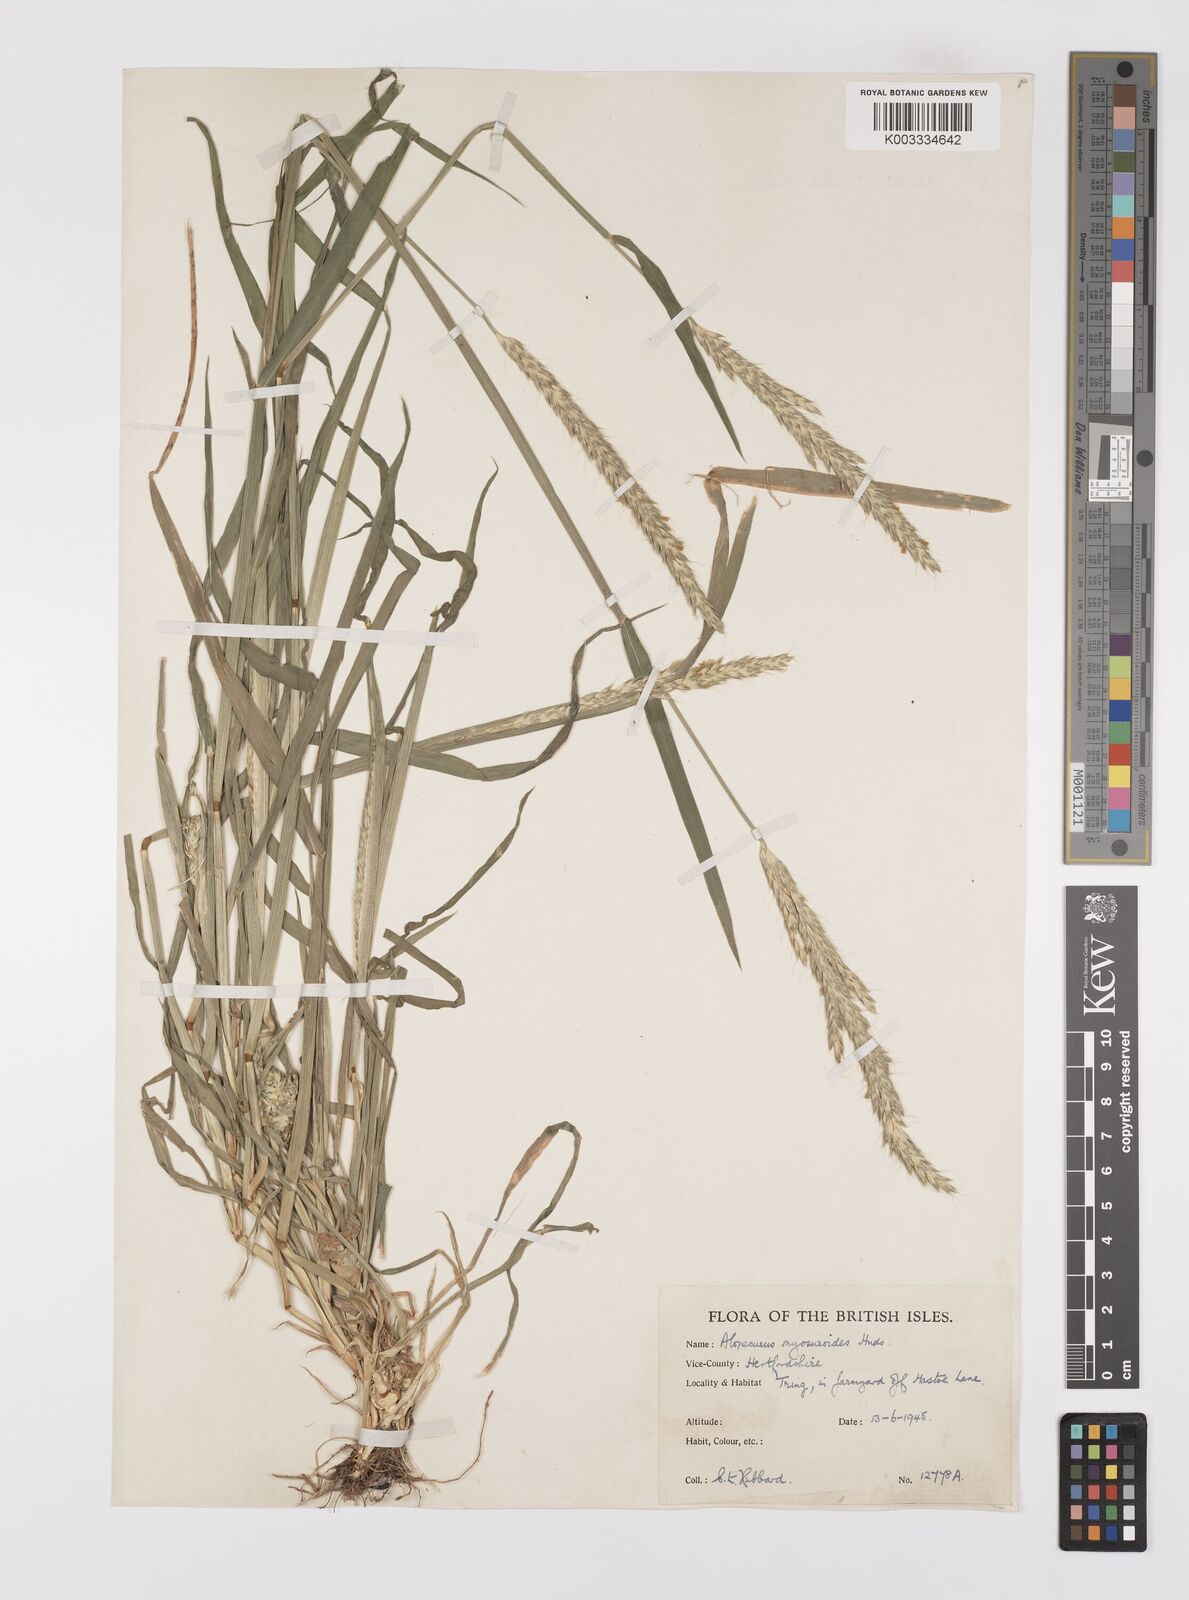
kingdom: Plantae
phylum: Tracheophyta
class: Liliopsida
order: Poales
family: Poaceae
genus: Alopecurus
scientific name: Alopecurus myosuroides
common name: Black-grass
